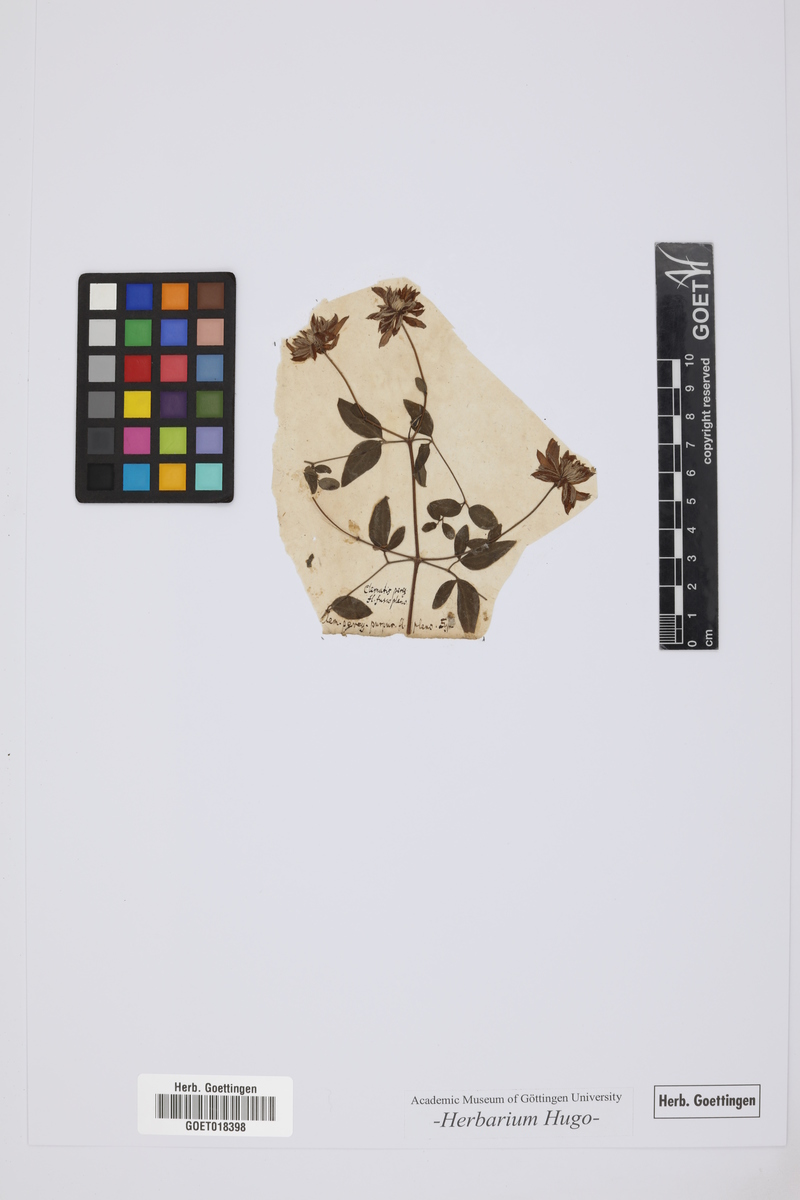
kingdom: Plantae
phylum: Tracheophyta
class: Magnoliopsida
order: Ranunculales
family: Ranunculaceae
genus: Clematis
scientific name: Clematis
